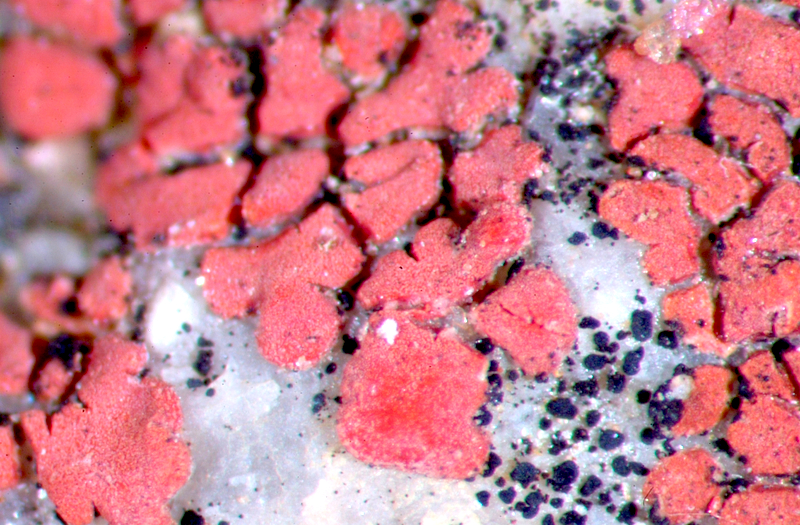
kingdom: Fungi
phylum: Ascomycota
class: Lichinomycetes
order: Lichinales
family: Lichinaceae
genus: Peccania
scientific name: Peccania
